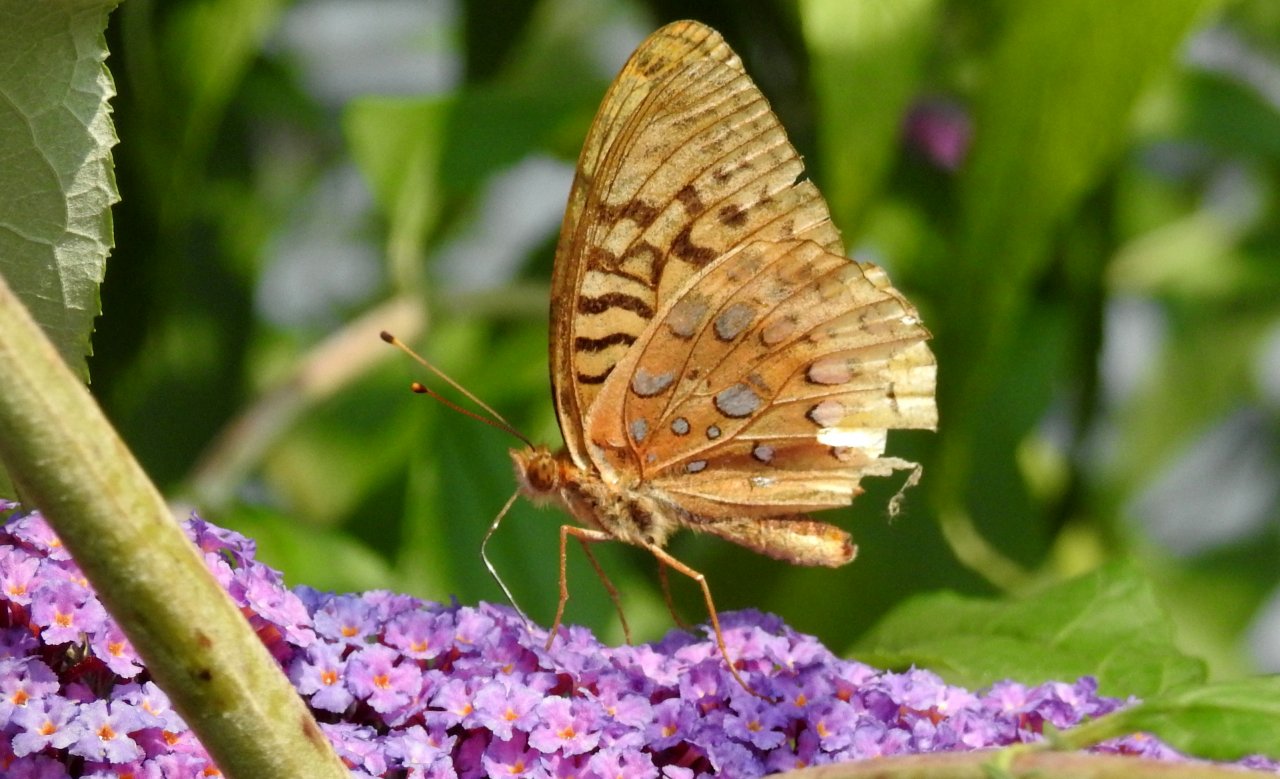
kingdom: Animalia
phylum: Arthropoda
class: Insecta
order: Lepidoptera
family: Nymphalidae
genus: Speyeria
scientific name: Speyeria cybele
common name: Great Spangled Fritillary
